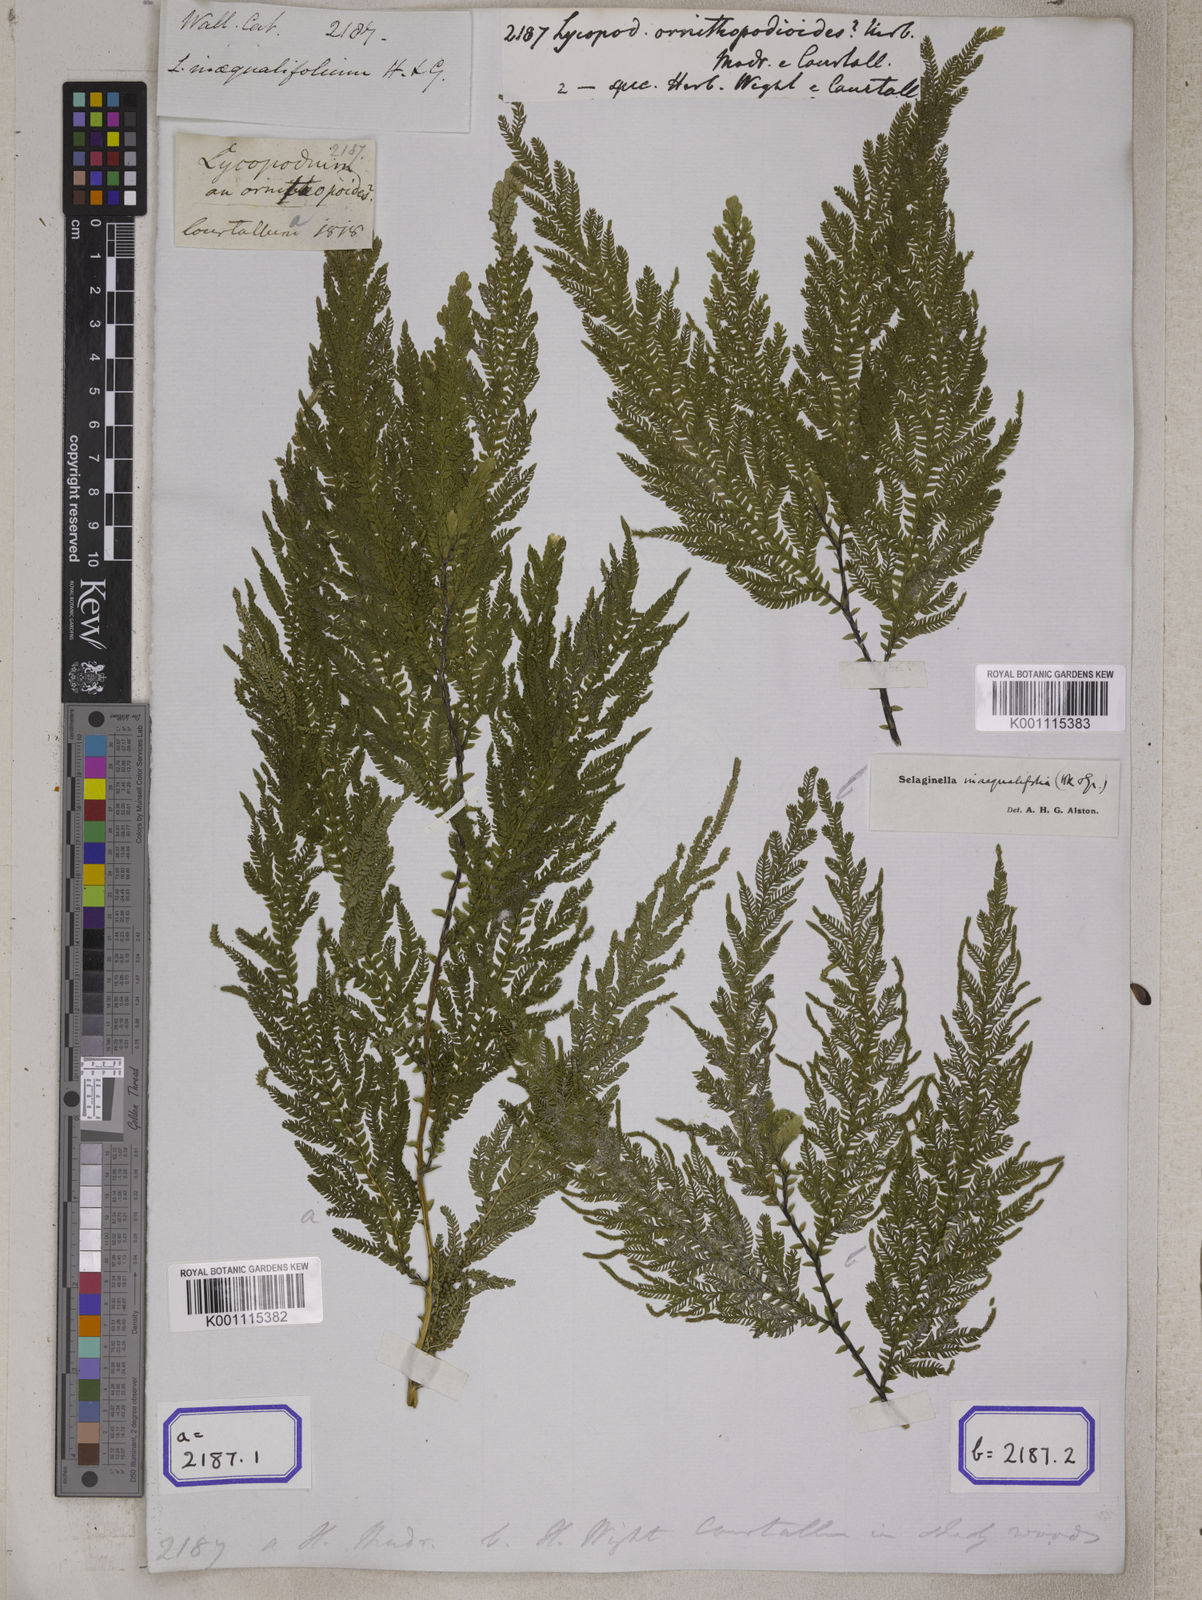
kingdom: Plantae
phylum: Tracheophyta
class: Lycopodiopsida
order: Selaginellales
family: Selaginellaceae
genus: Selaginella
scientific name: Selaginella ornithopodioides
